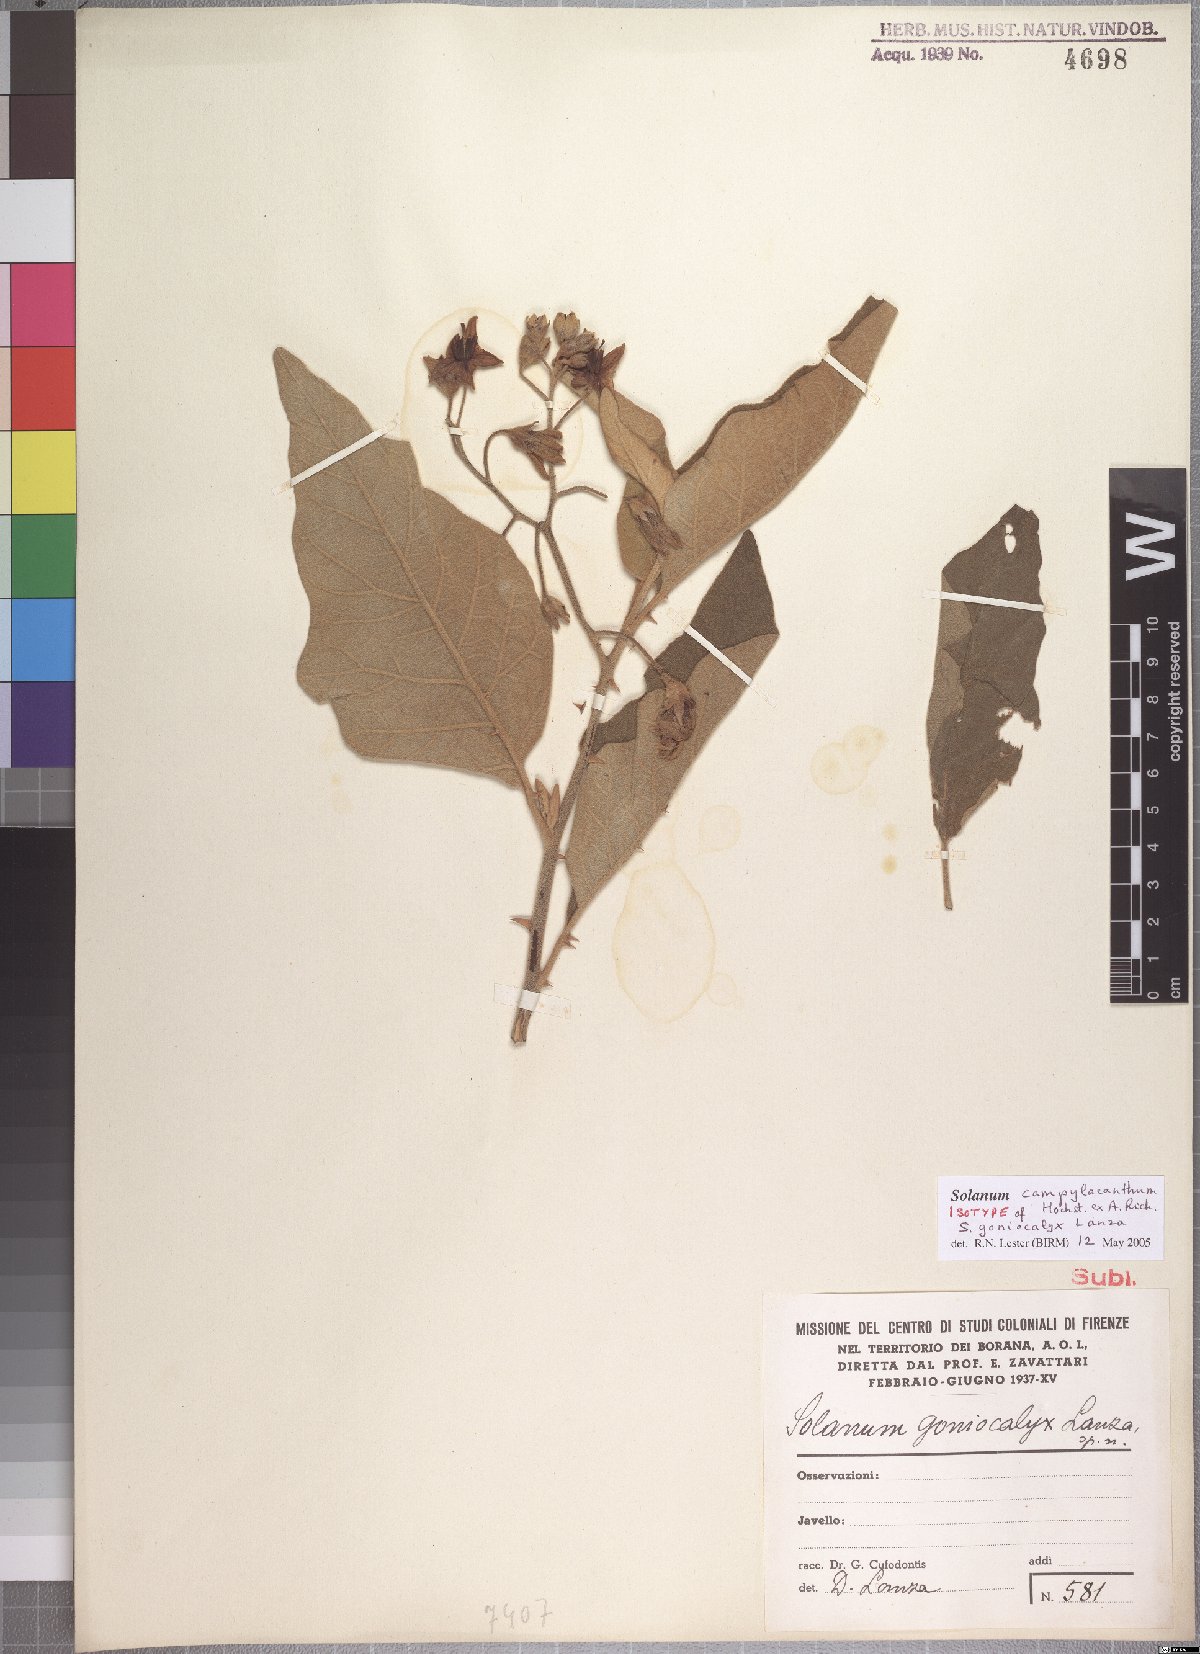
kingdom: Plantae
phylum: Tracheophyta
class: Magnoliopsida
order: Solanales
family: Solanaceae
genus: Solanum
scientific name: Solanum campylacanthum
